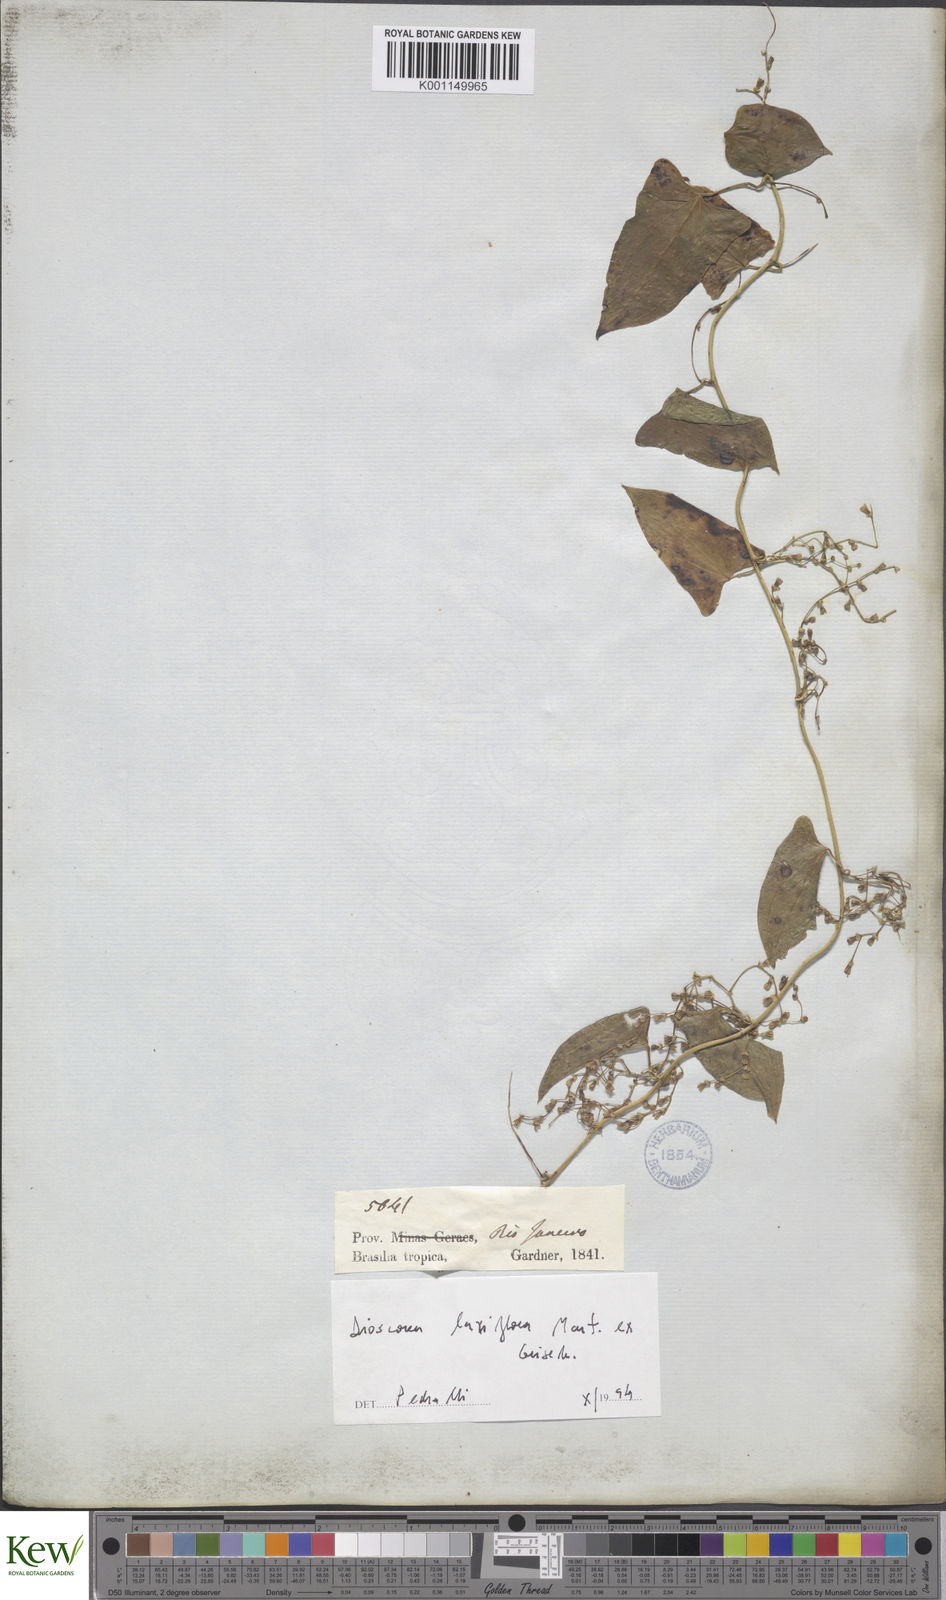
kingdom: Plantae
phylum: Tracheophyta
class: Liliopsida
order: Dioscoreales
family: Dioscoreaceae
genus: Dioscorea
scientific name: Dioscorea laxiflora
